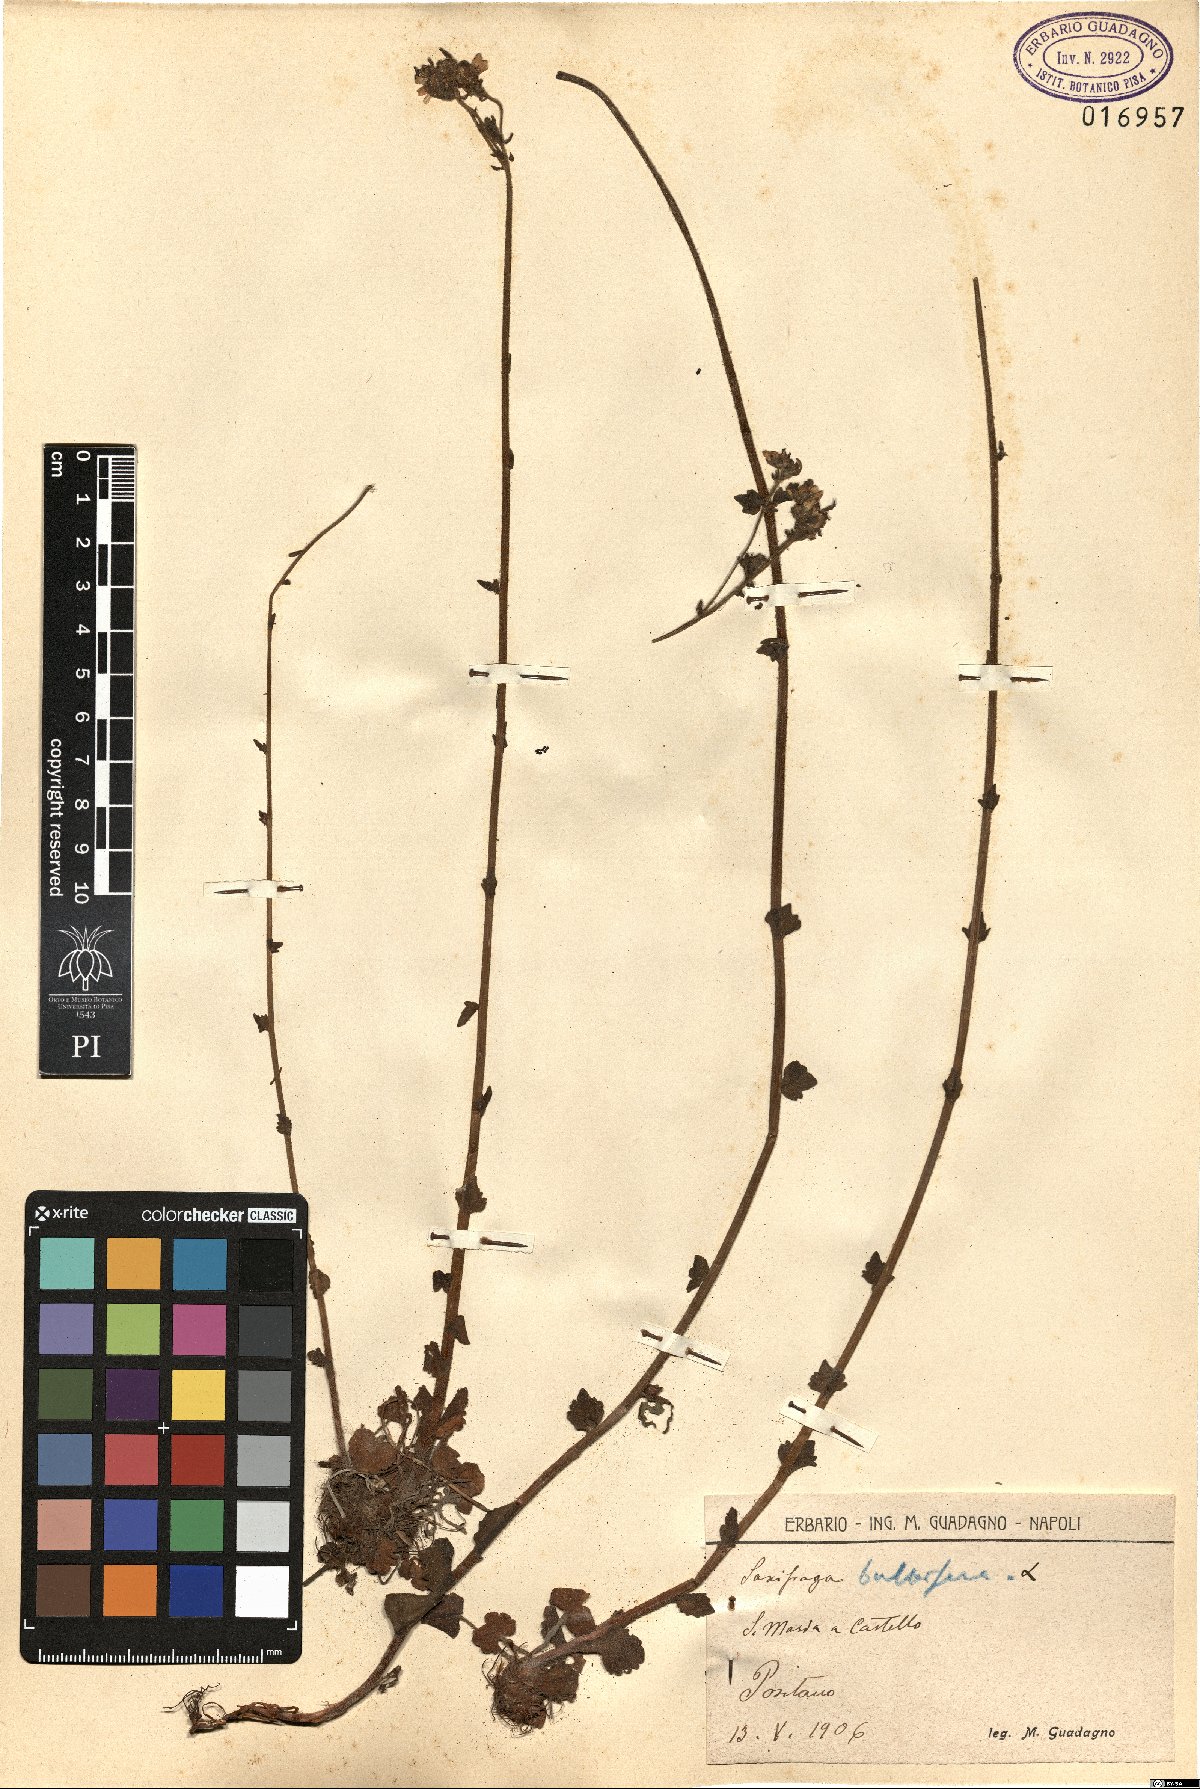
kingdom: Plantae
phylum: Tracheophyta
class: Magnoliopsida
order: Saxifragales
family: Saxifragaceae
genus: Saxifraga
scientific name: Saxifraga bulbifera
